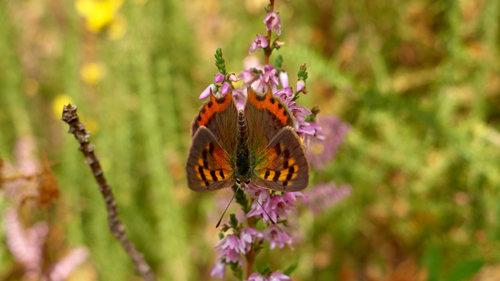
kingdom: Animalia
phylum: Arthropoda
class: Insecta
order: Lepidoptera
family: Lycaenidae
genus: Lycaena
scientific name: Lycaena phlaeas
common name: Small copper
